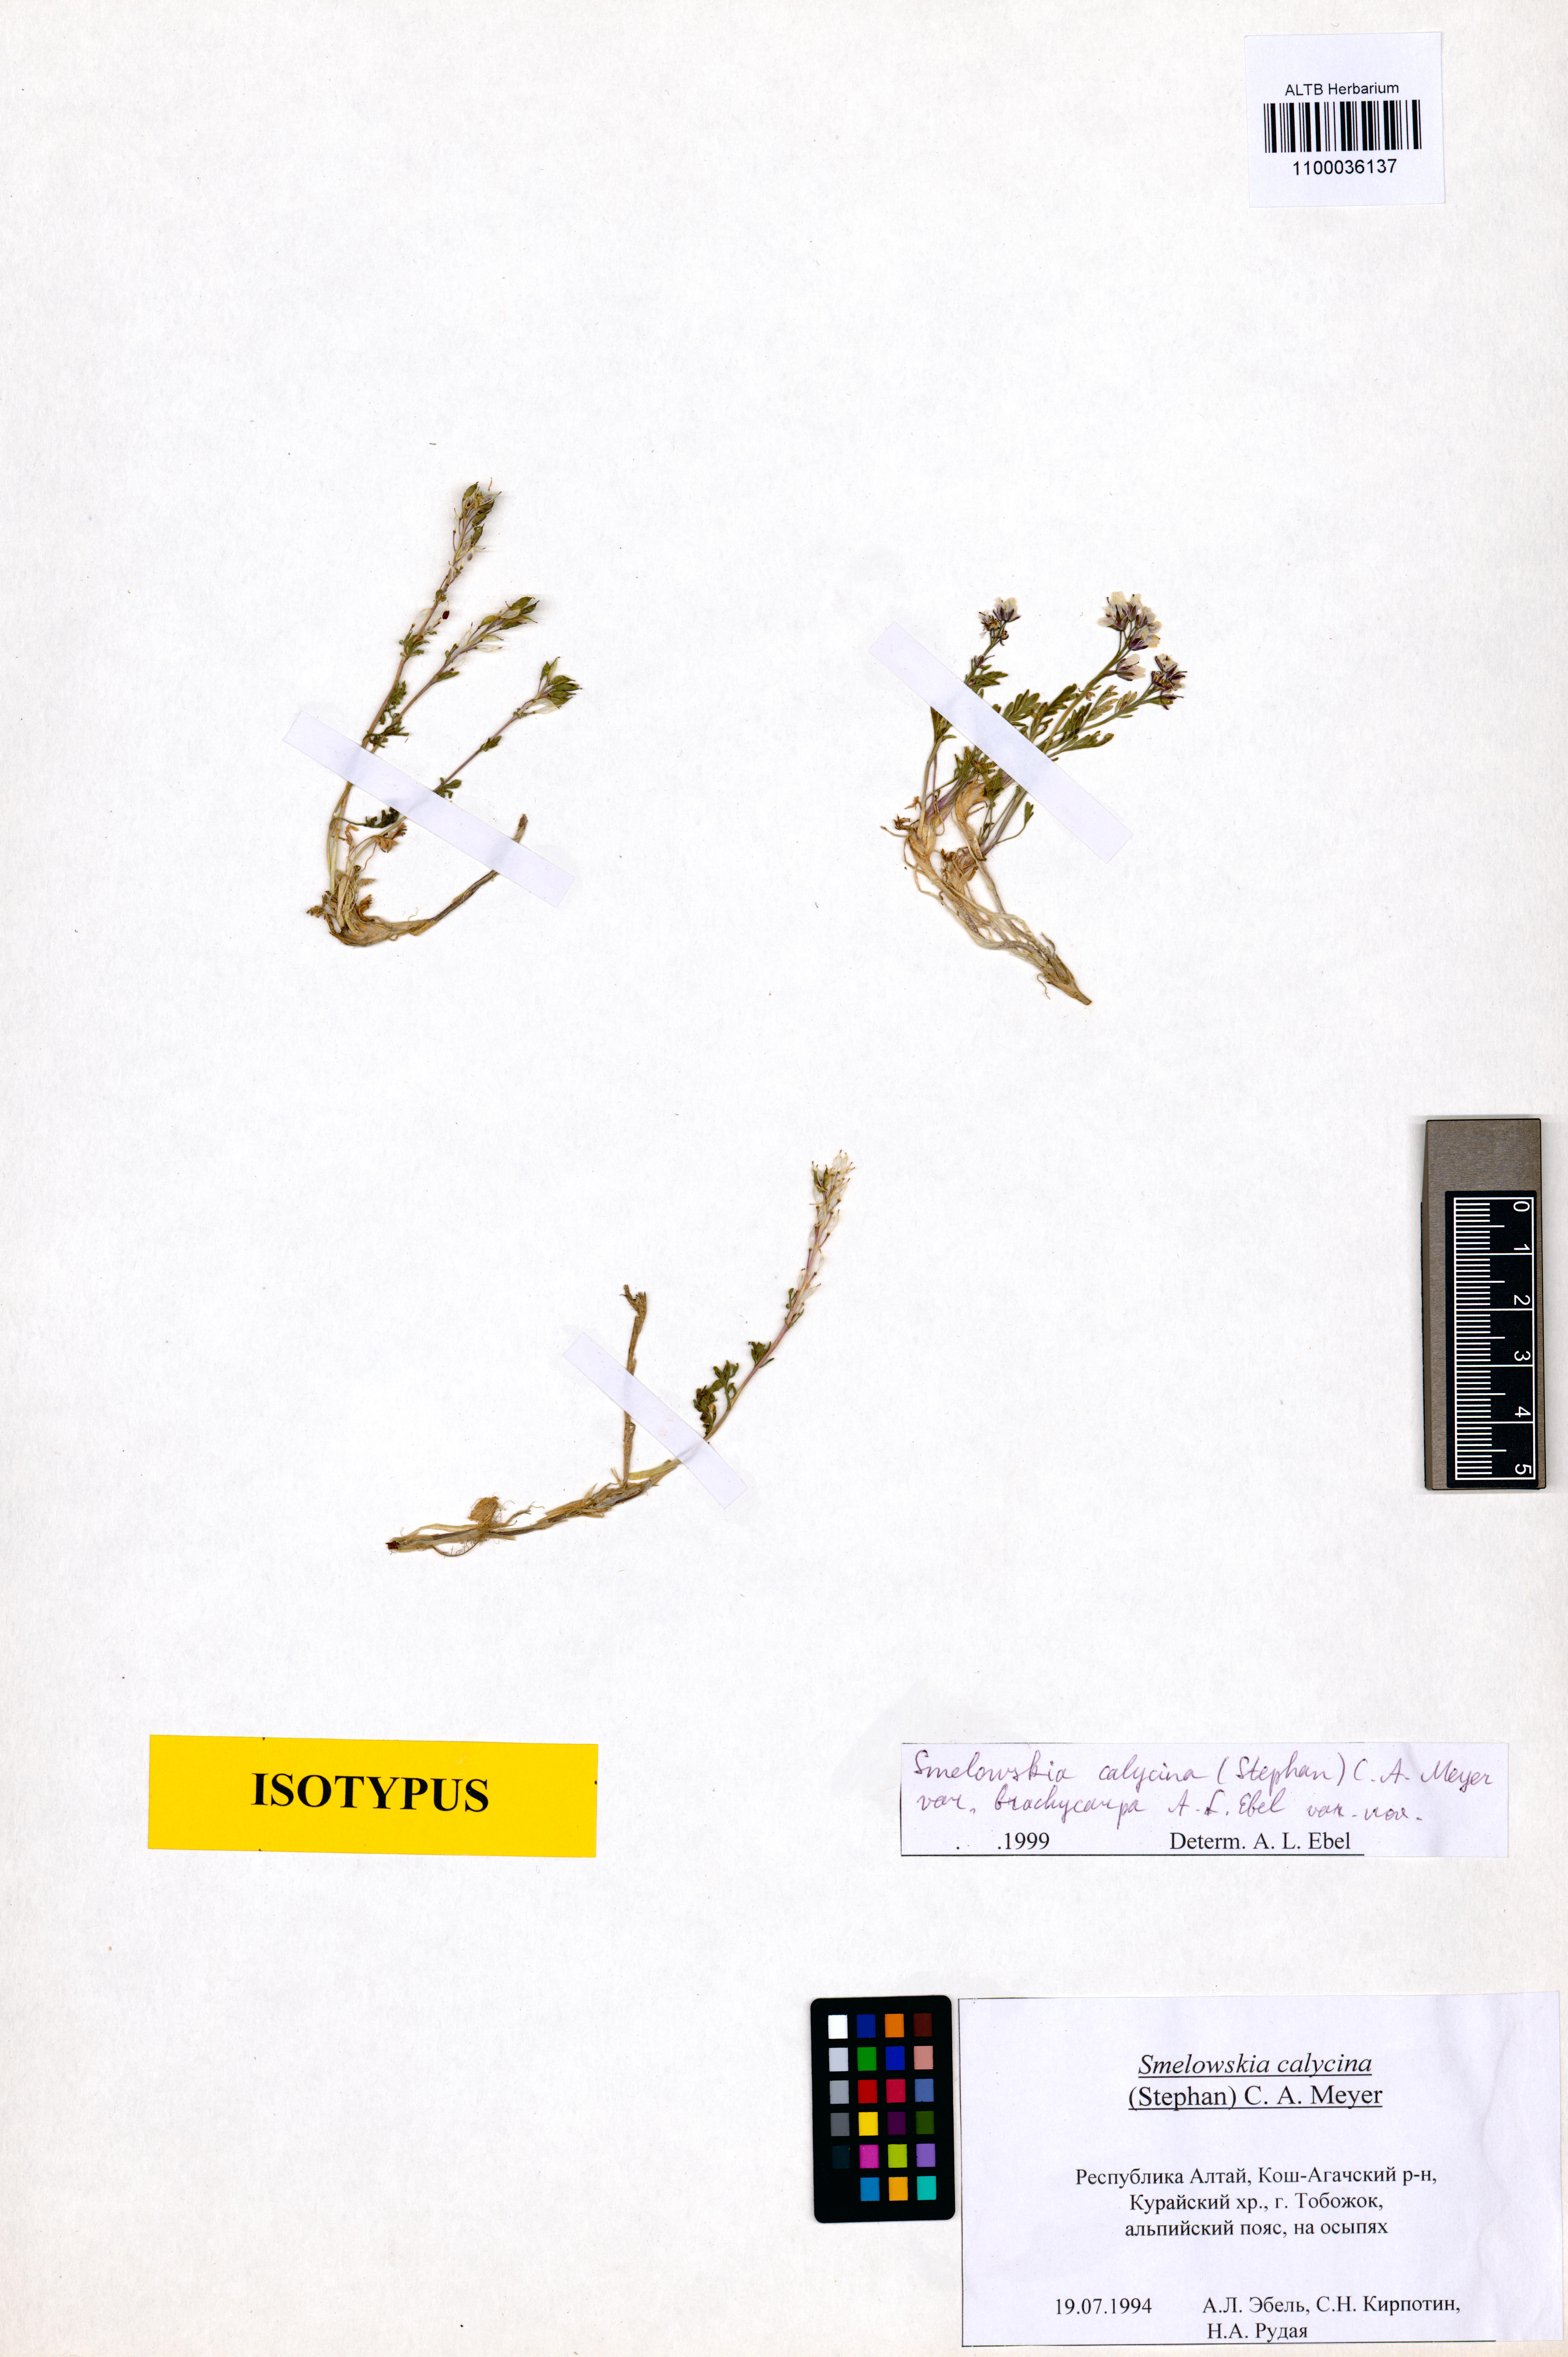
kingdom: Plantae
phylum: Tracheophyta
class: Magnoliopsida
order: Brassicales
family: Brassicaceae
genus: Smelowskia
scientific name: Smelowskia calycina
